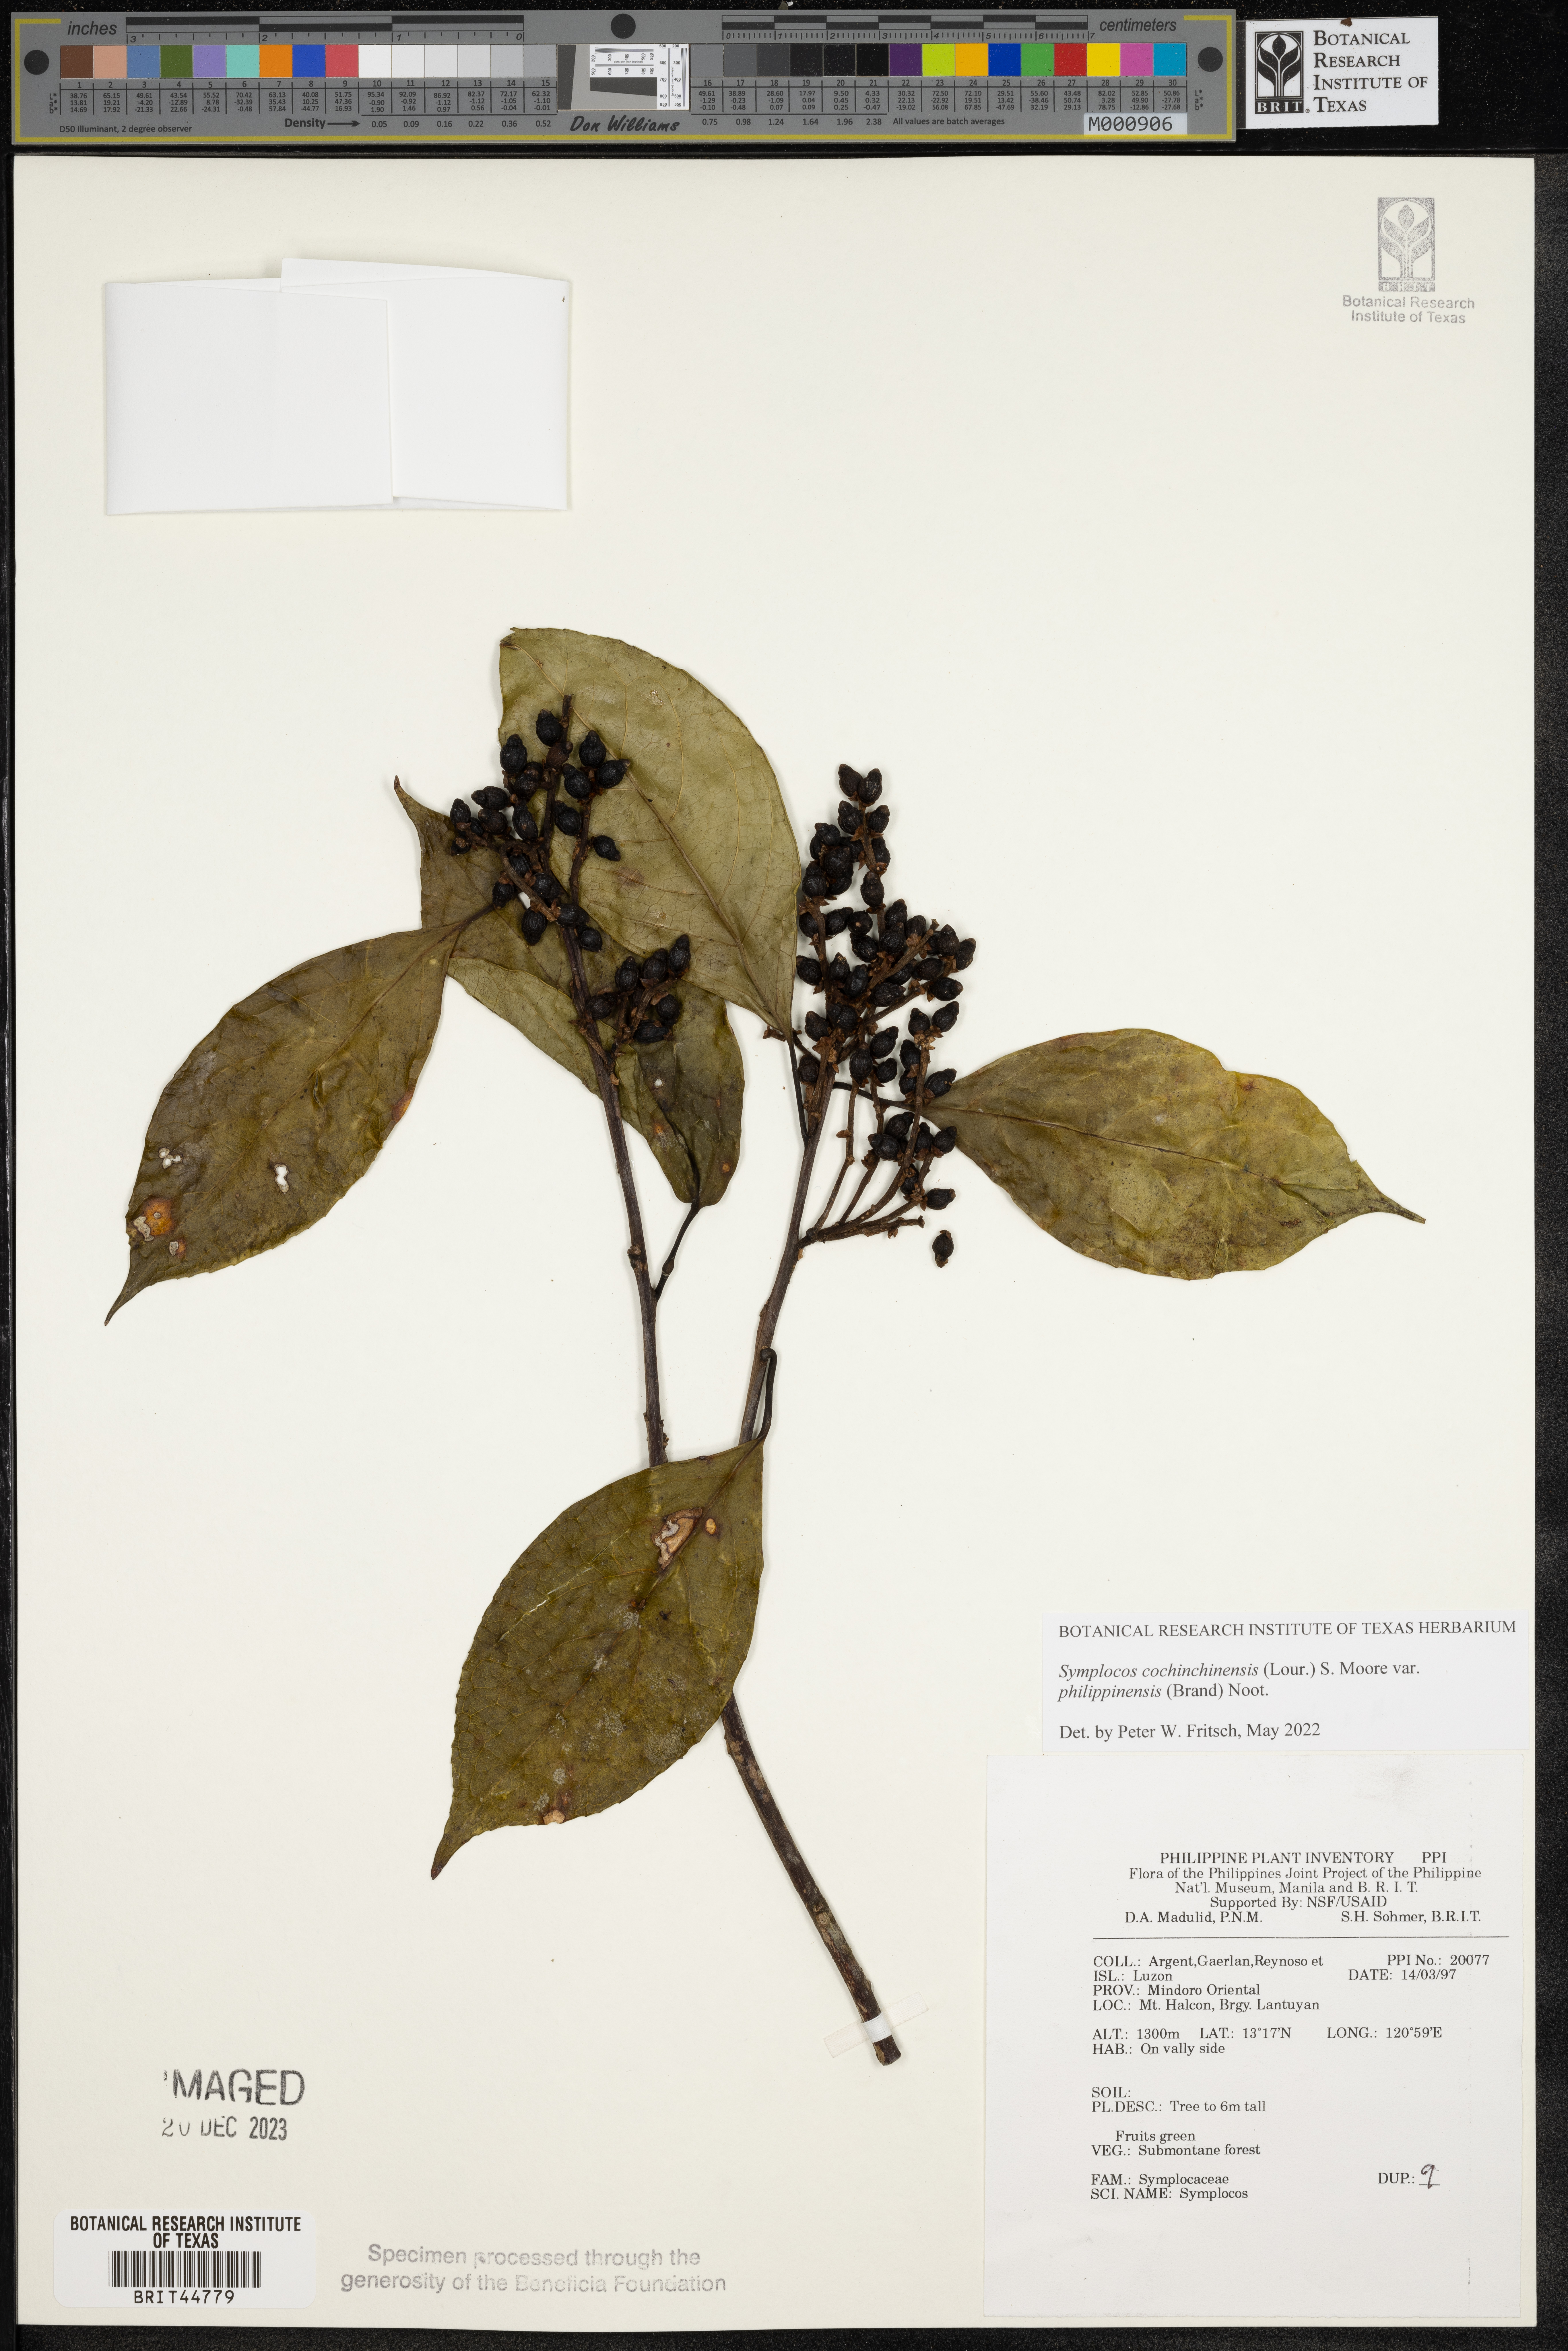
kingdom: Plantae
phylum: Tracheophyta
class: Magnoliopsida
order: Ericales
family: Symplocaceae
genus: Symplocos
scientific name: Symplocos
